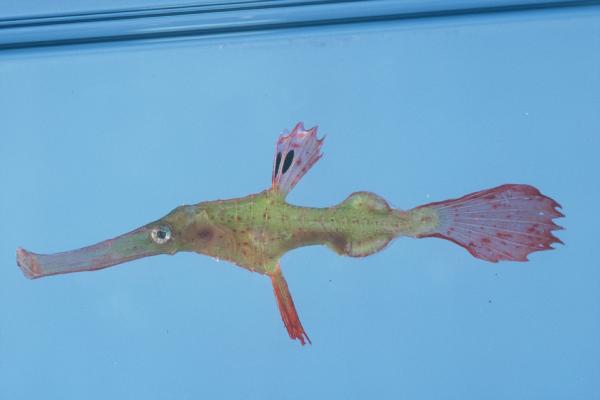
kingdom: Animalia
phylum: Chordata
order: Syngnathiformes
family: Solenostomidae
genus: Solenostomus
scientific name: Solenostomus cyanopterus
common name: Blue-finned ghost pipefish
